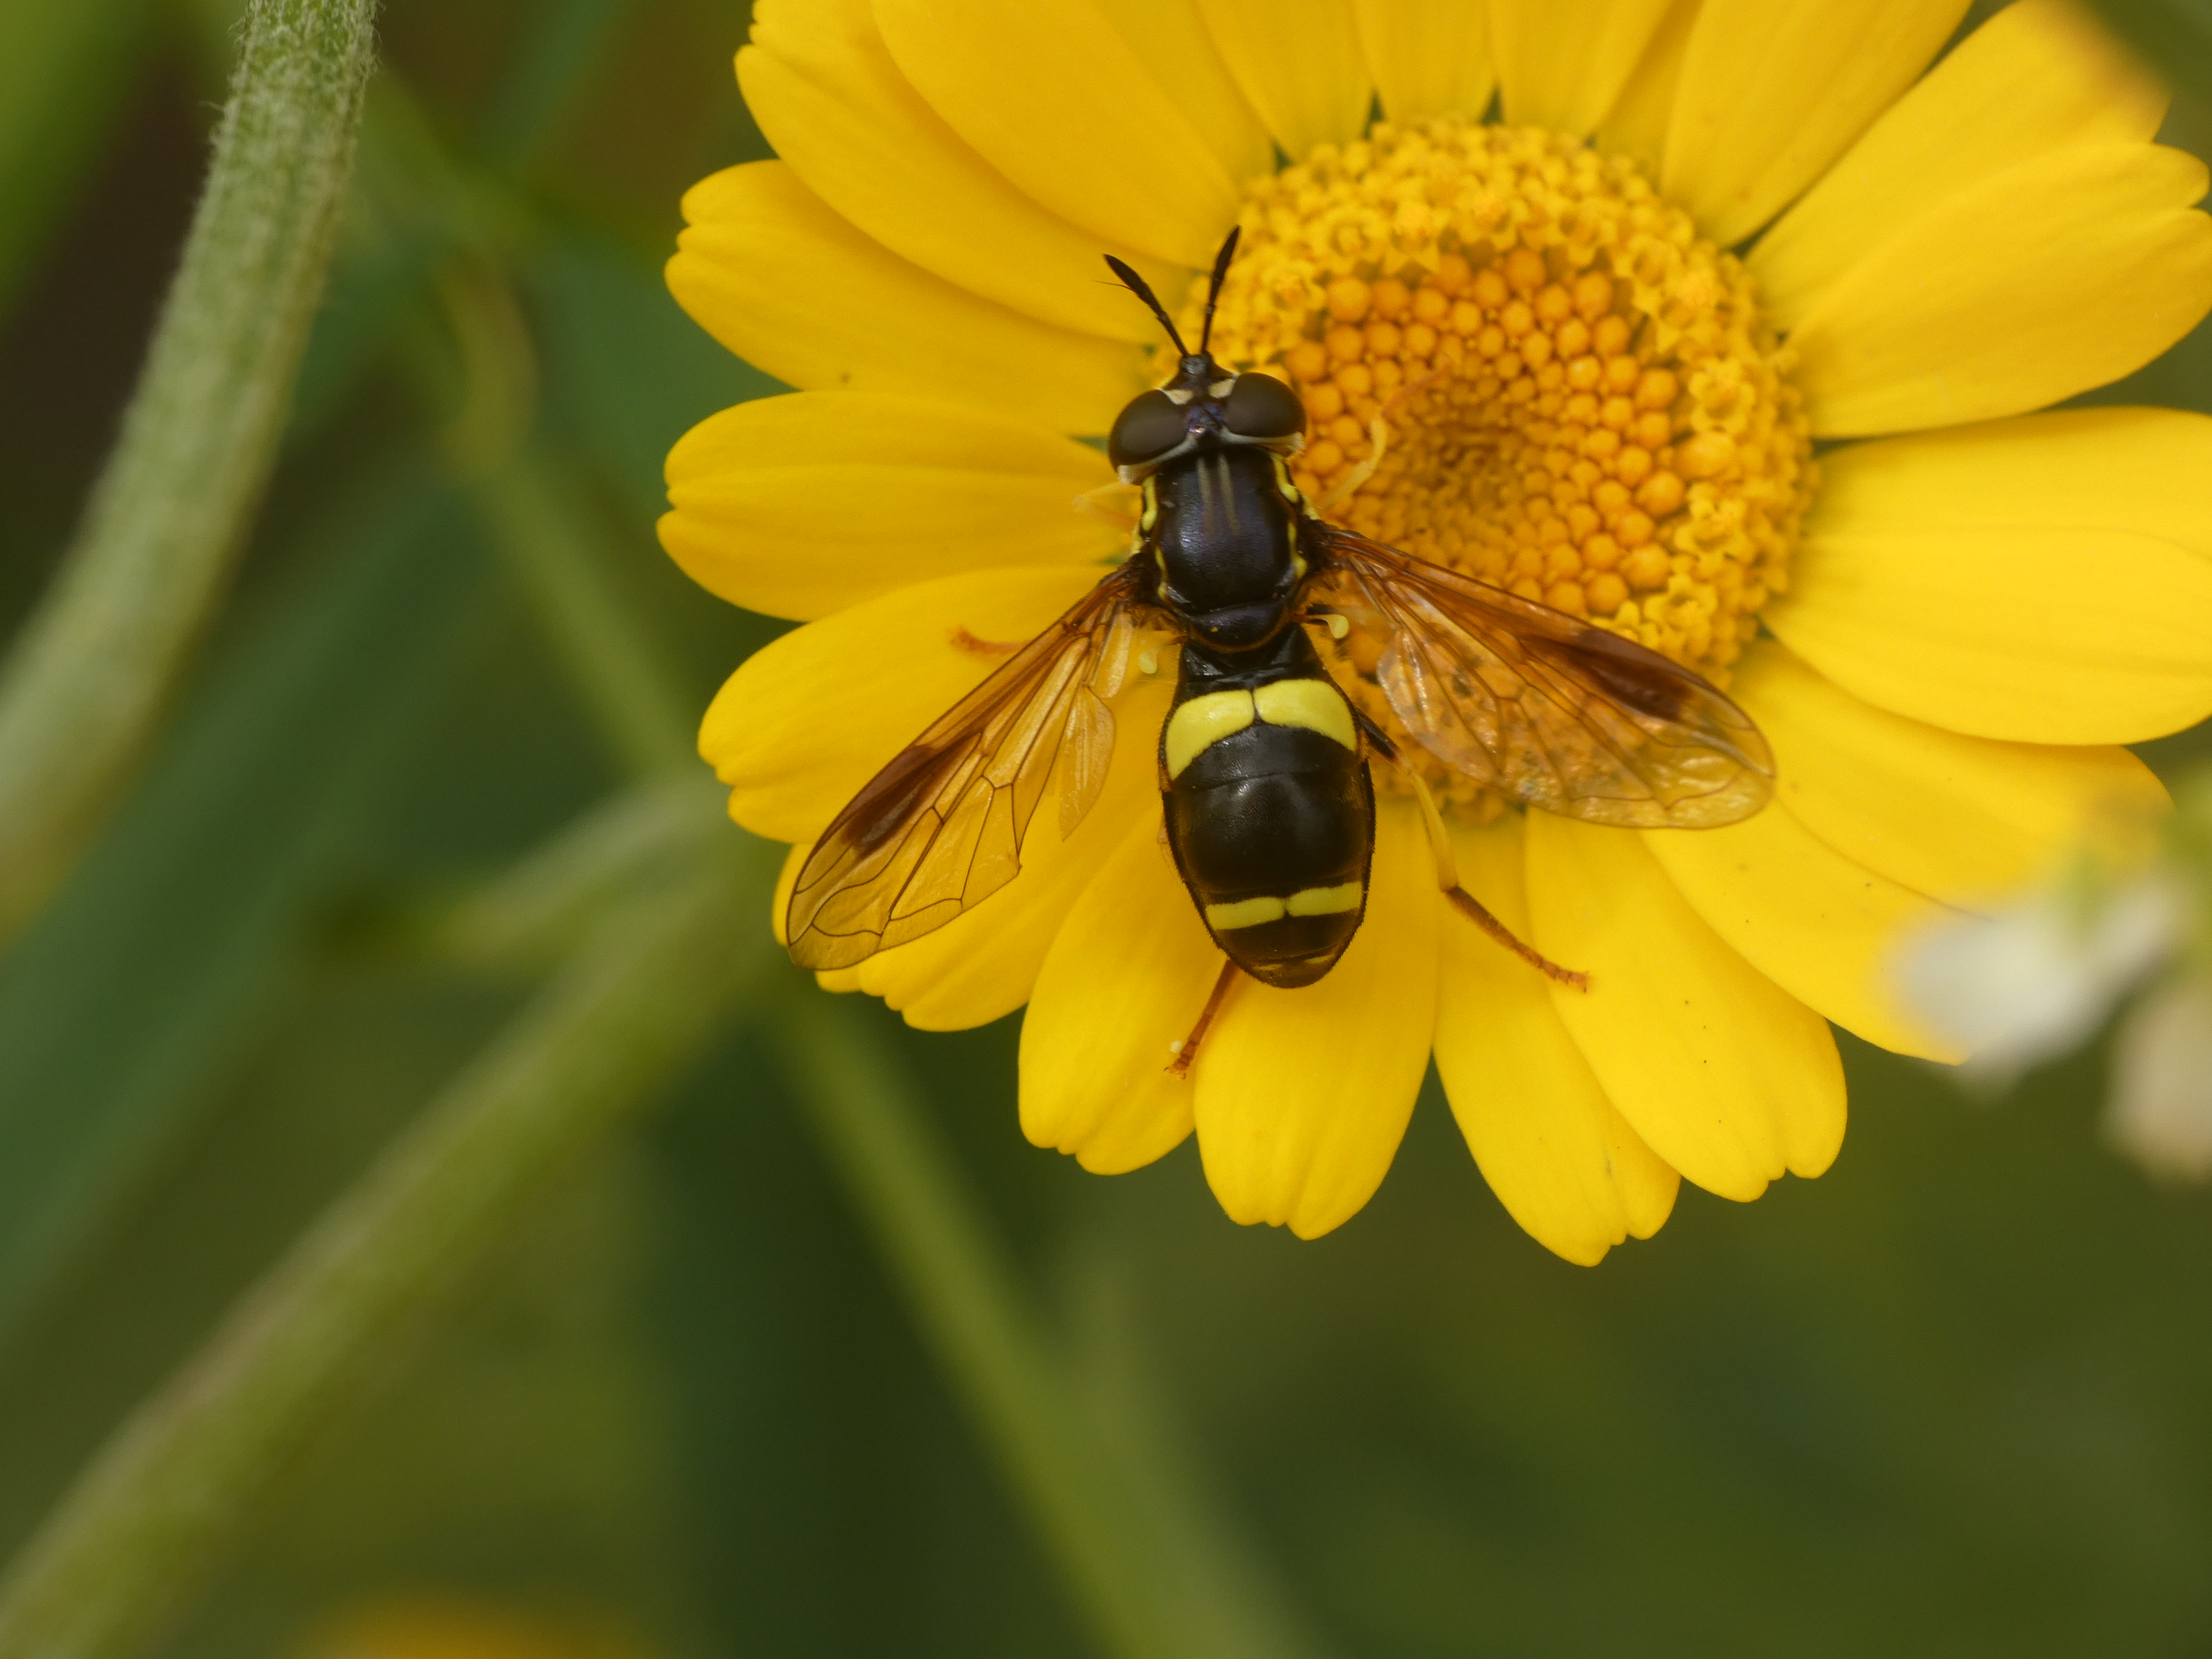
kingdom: Animalia
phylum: Arthropoda
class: Insecta
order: Diptera
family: Syrphidae
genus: Chrysotoxum
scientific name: Chrysotoxum bicincta
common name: Tobåndet hvepsesvirreflue
